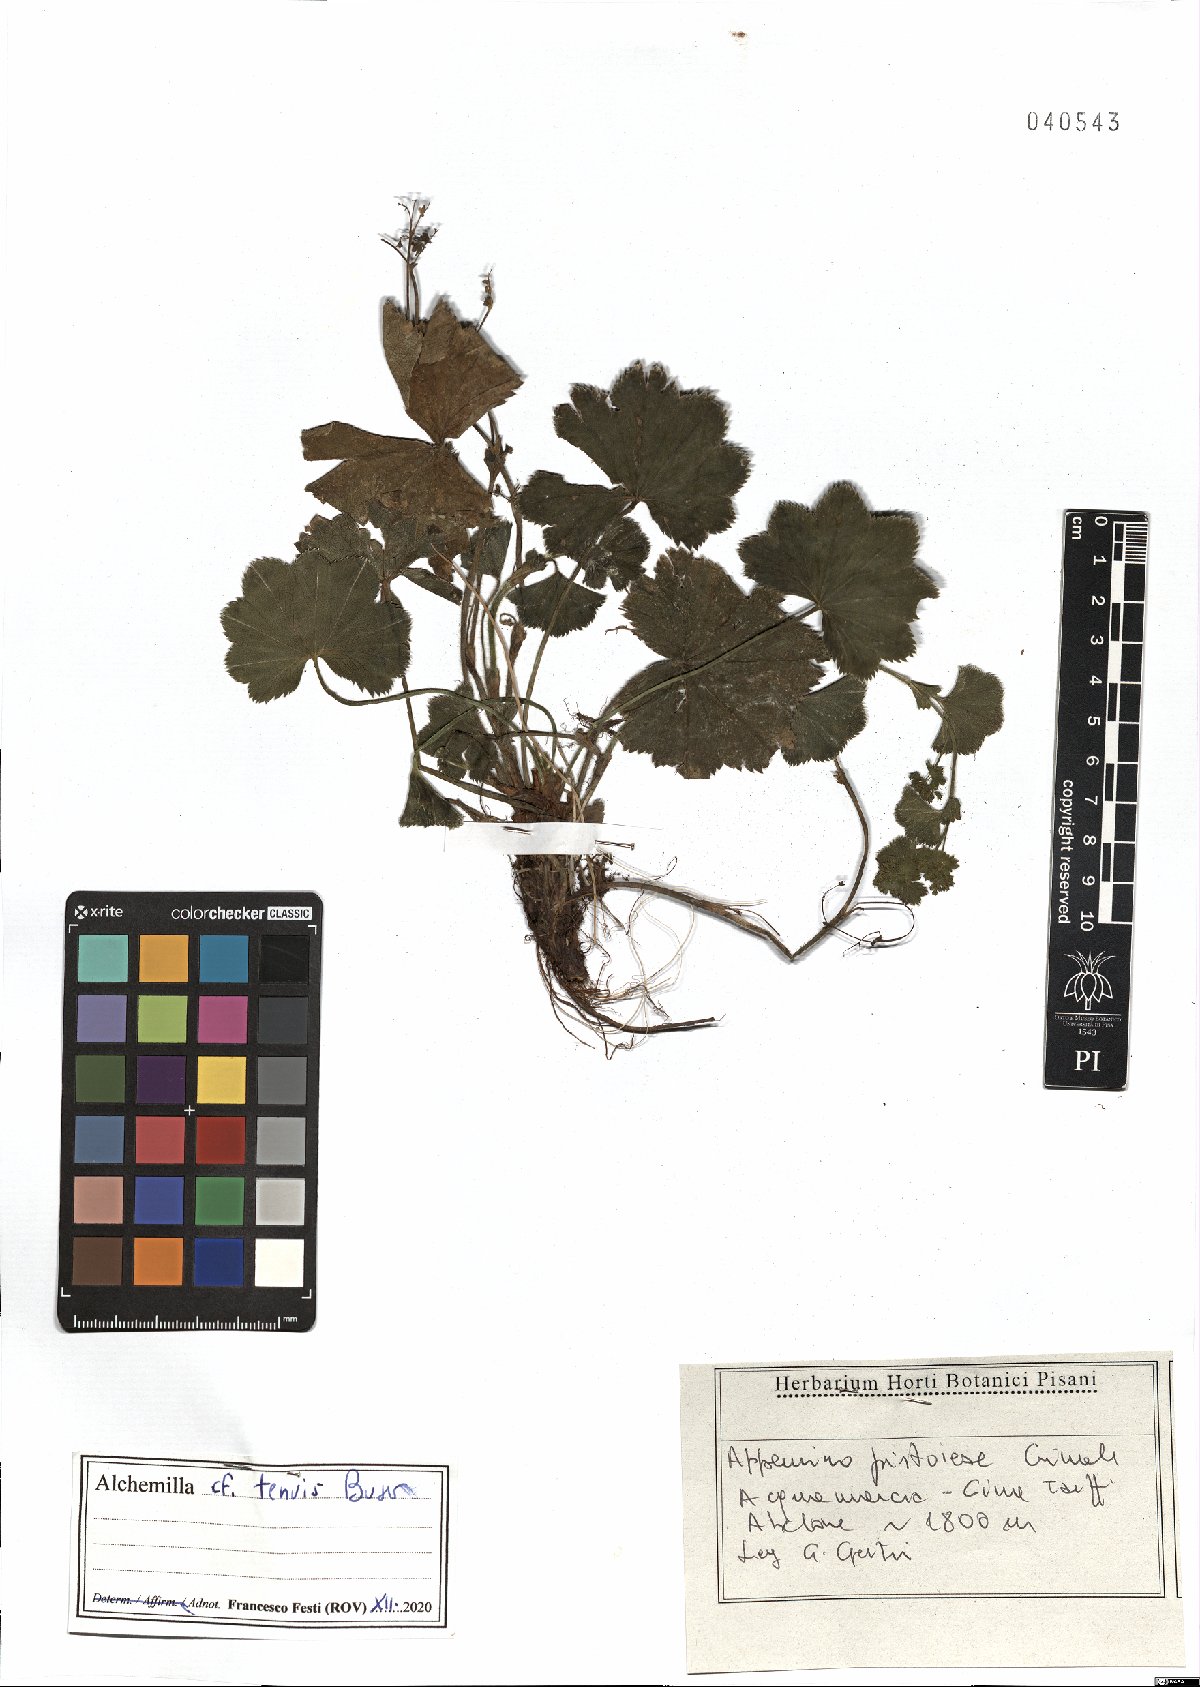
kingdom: Plantae
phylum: Tracheophyta
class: Magnoliopsida
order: Rosales
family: Rosaceae
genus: Alchemilla
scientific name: Alchemilla tenuis
